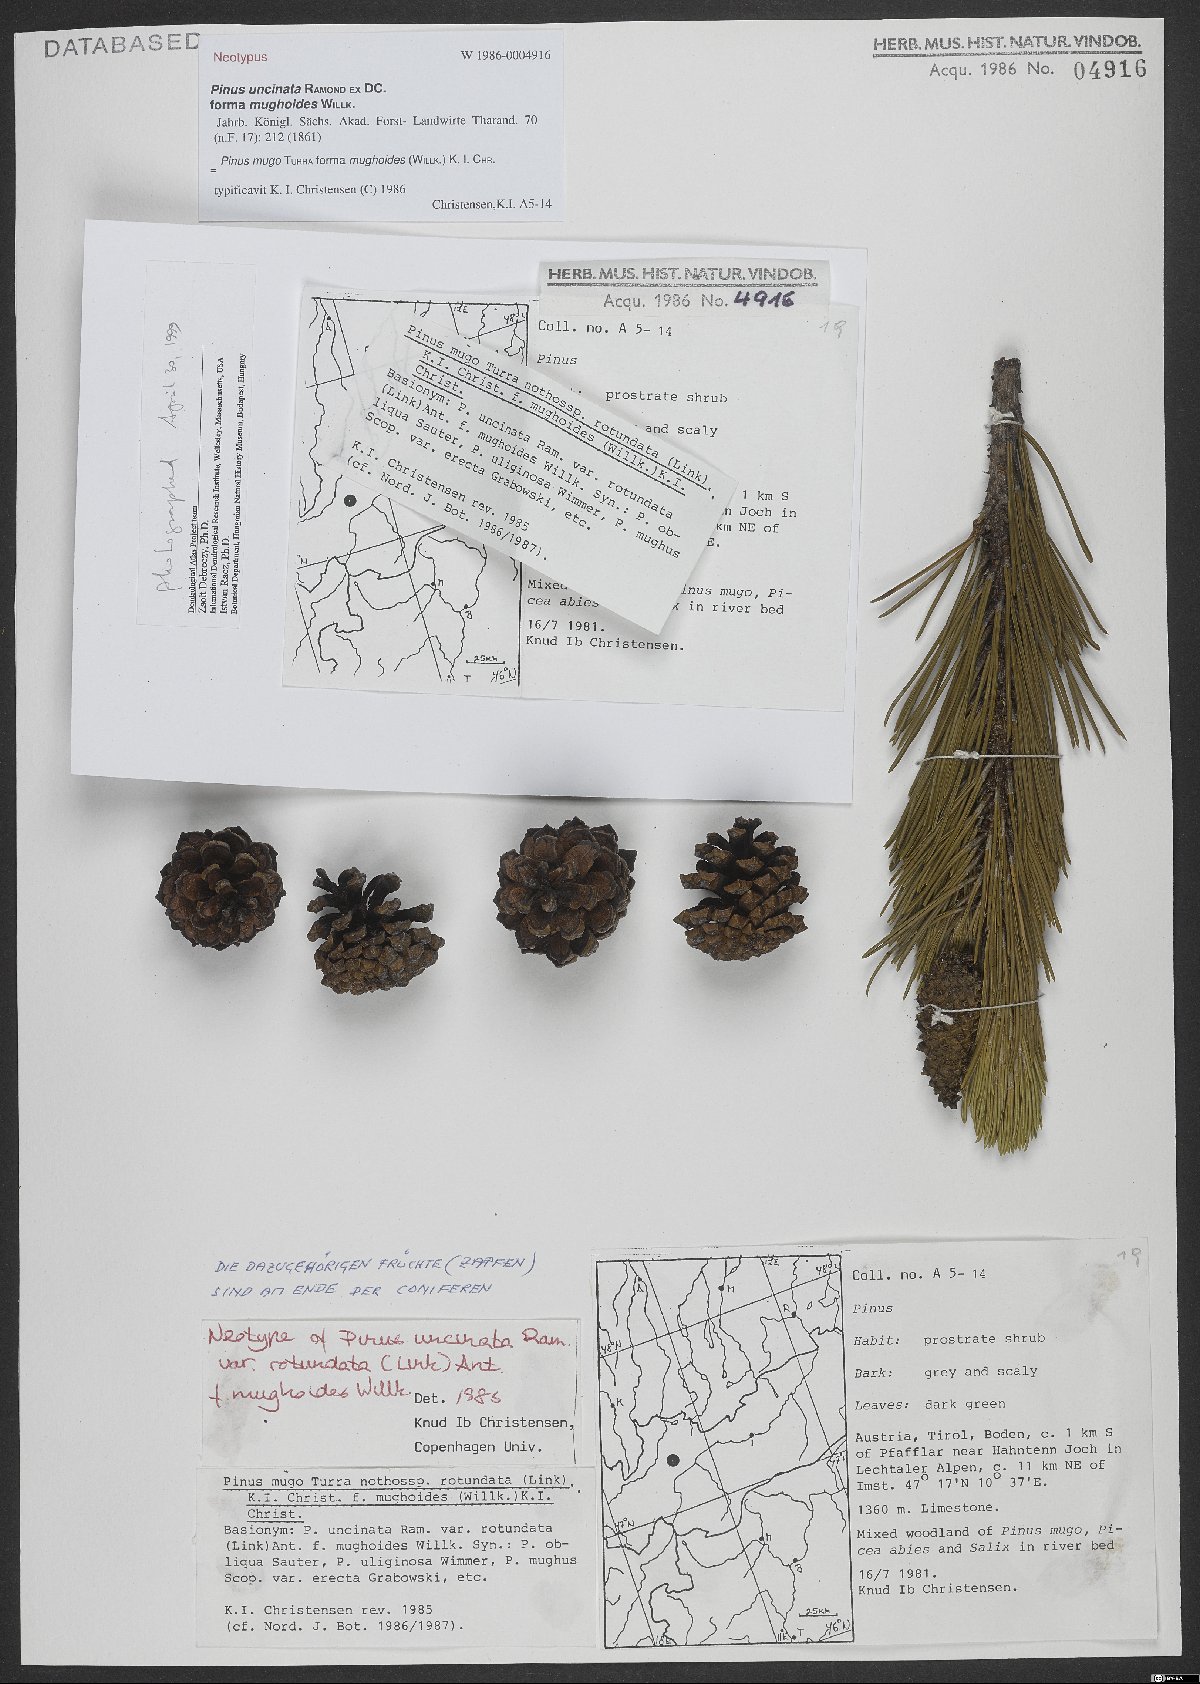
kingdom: Plantae
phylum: Tracheophyta
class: Pinopsida
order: Pinales
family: Pinaceae
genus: Pinus
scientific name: Pinus mugo
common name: Mugo pine
